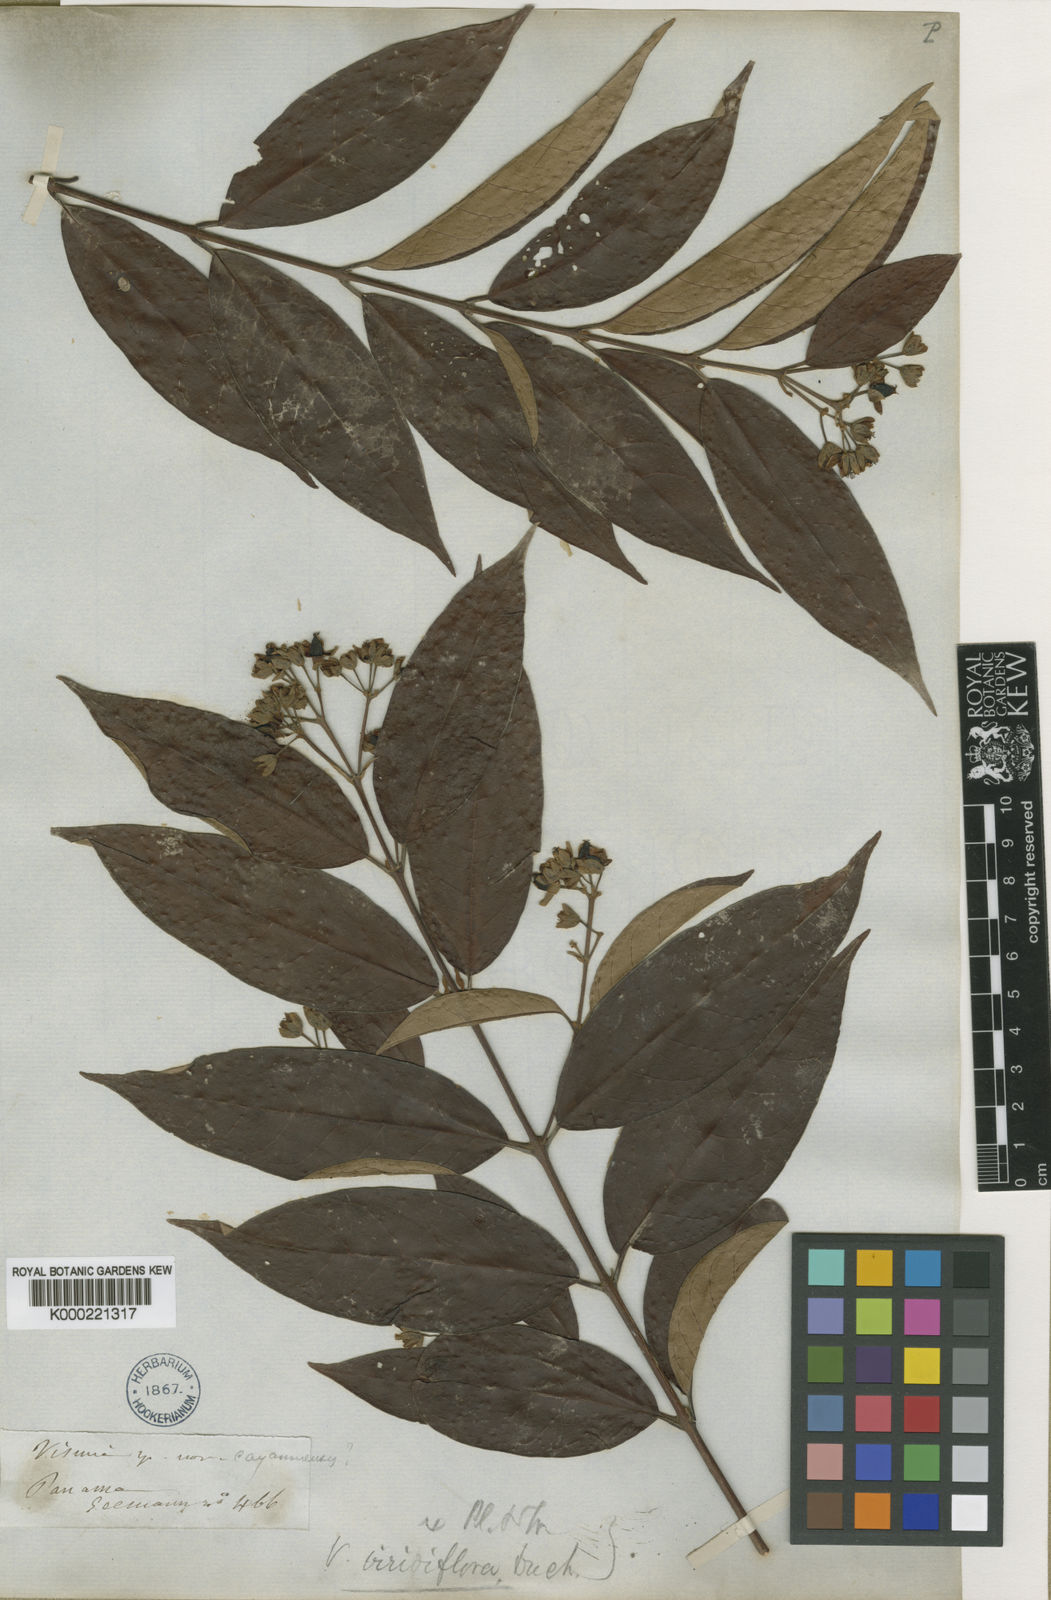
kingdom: Plantae
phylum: Tracheophyta
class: Magnoliopsida
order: Malpighiales
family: Hypericaceae
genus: Vismia
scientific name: Vismia billbergiana
